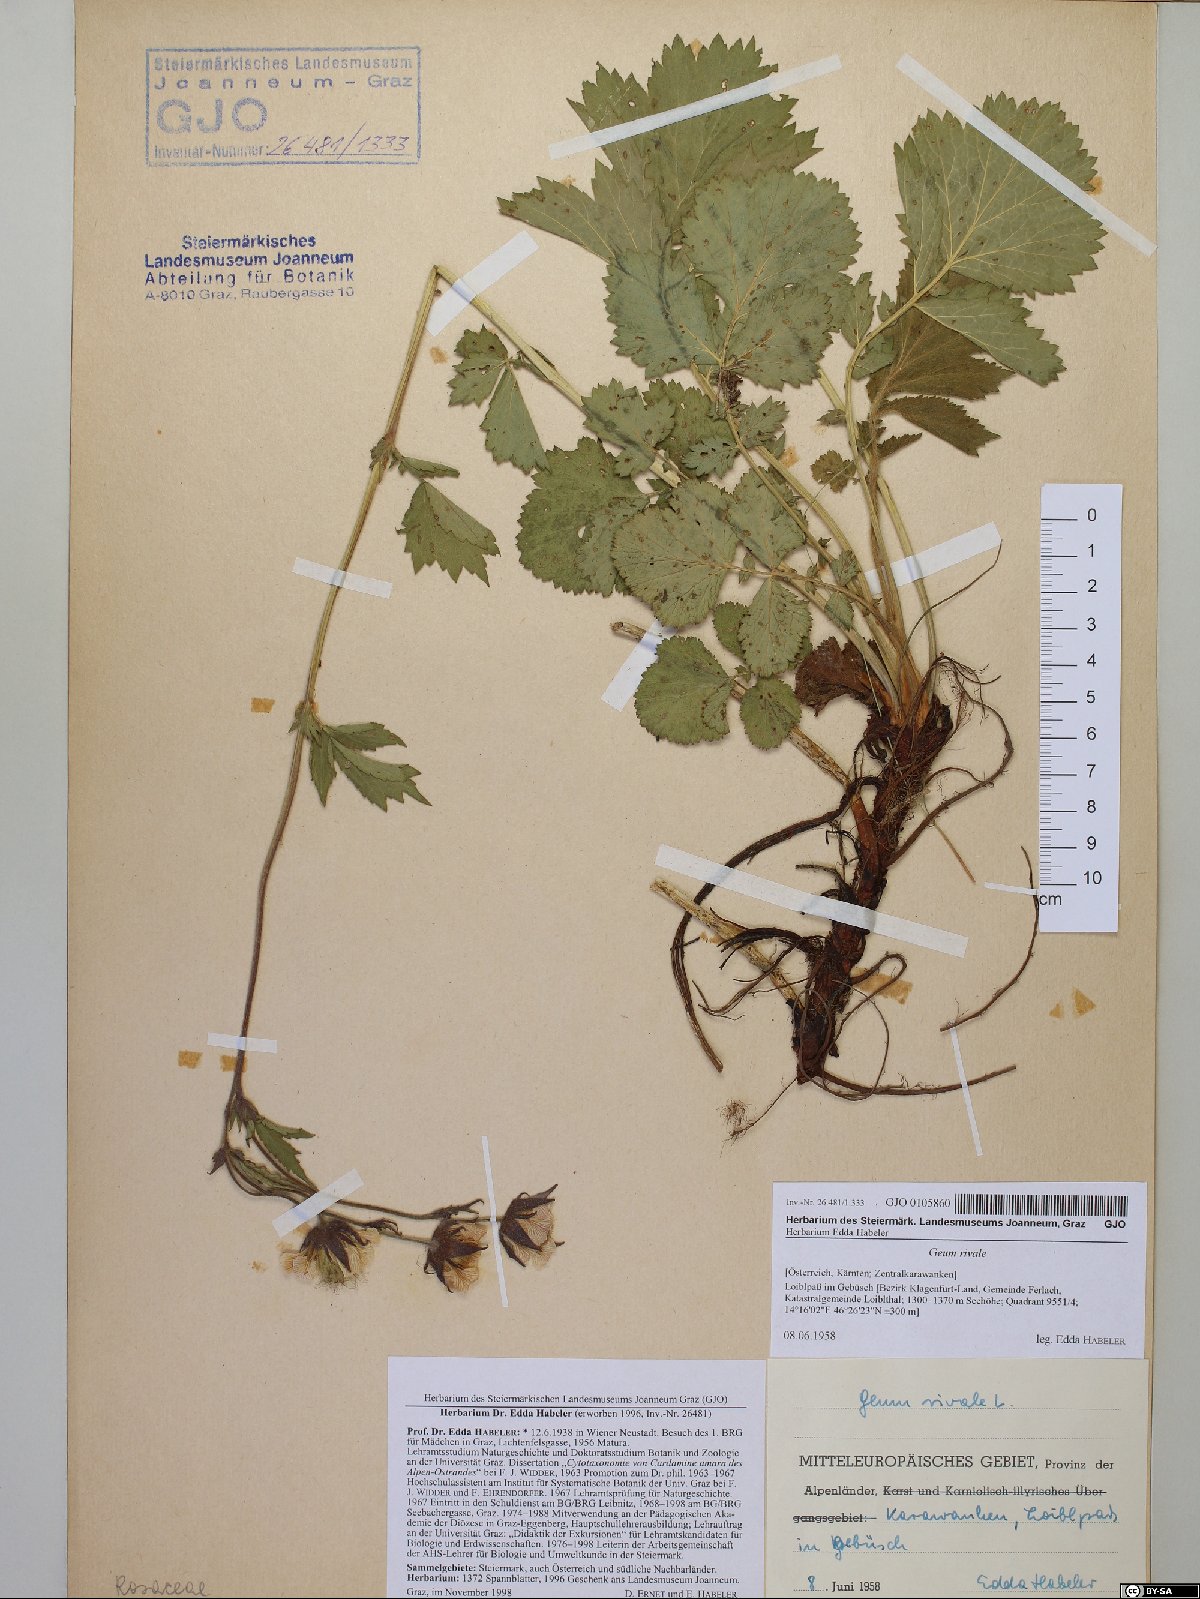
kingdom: Plantae
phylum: Tracheophyta
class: Magnoliopsida
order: Rosales
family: Rosaceae
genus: Geum
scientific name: Geum rivale
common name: Water avens
